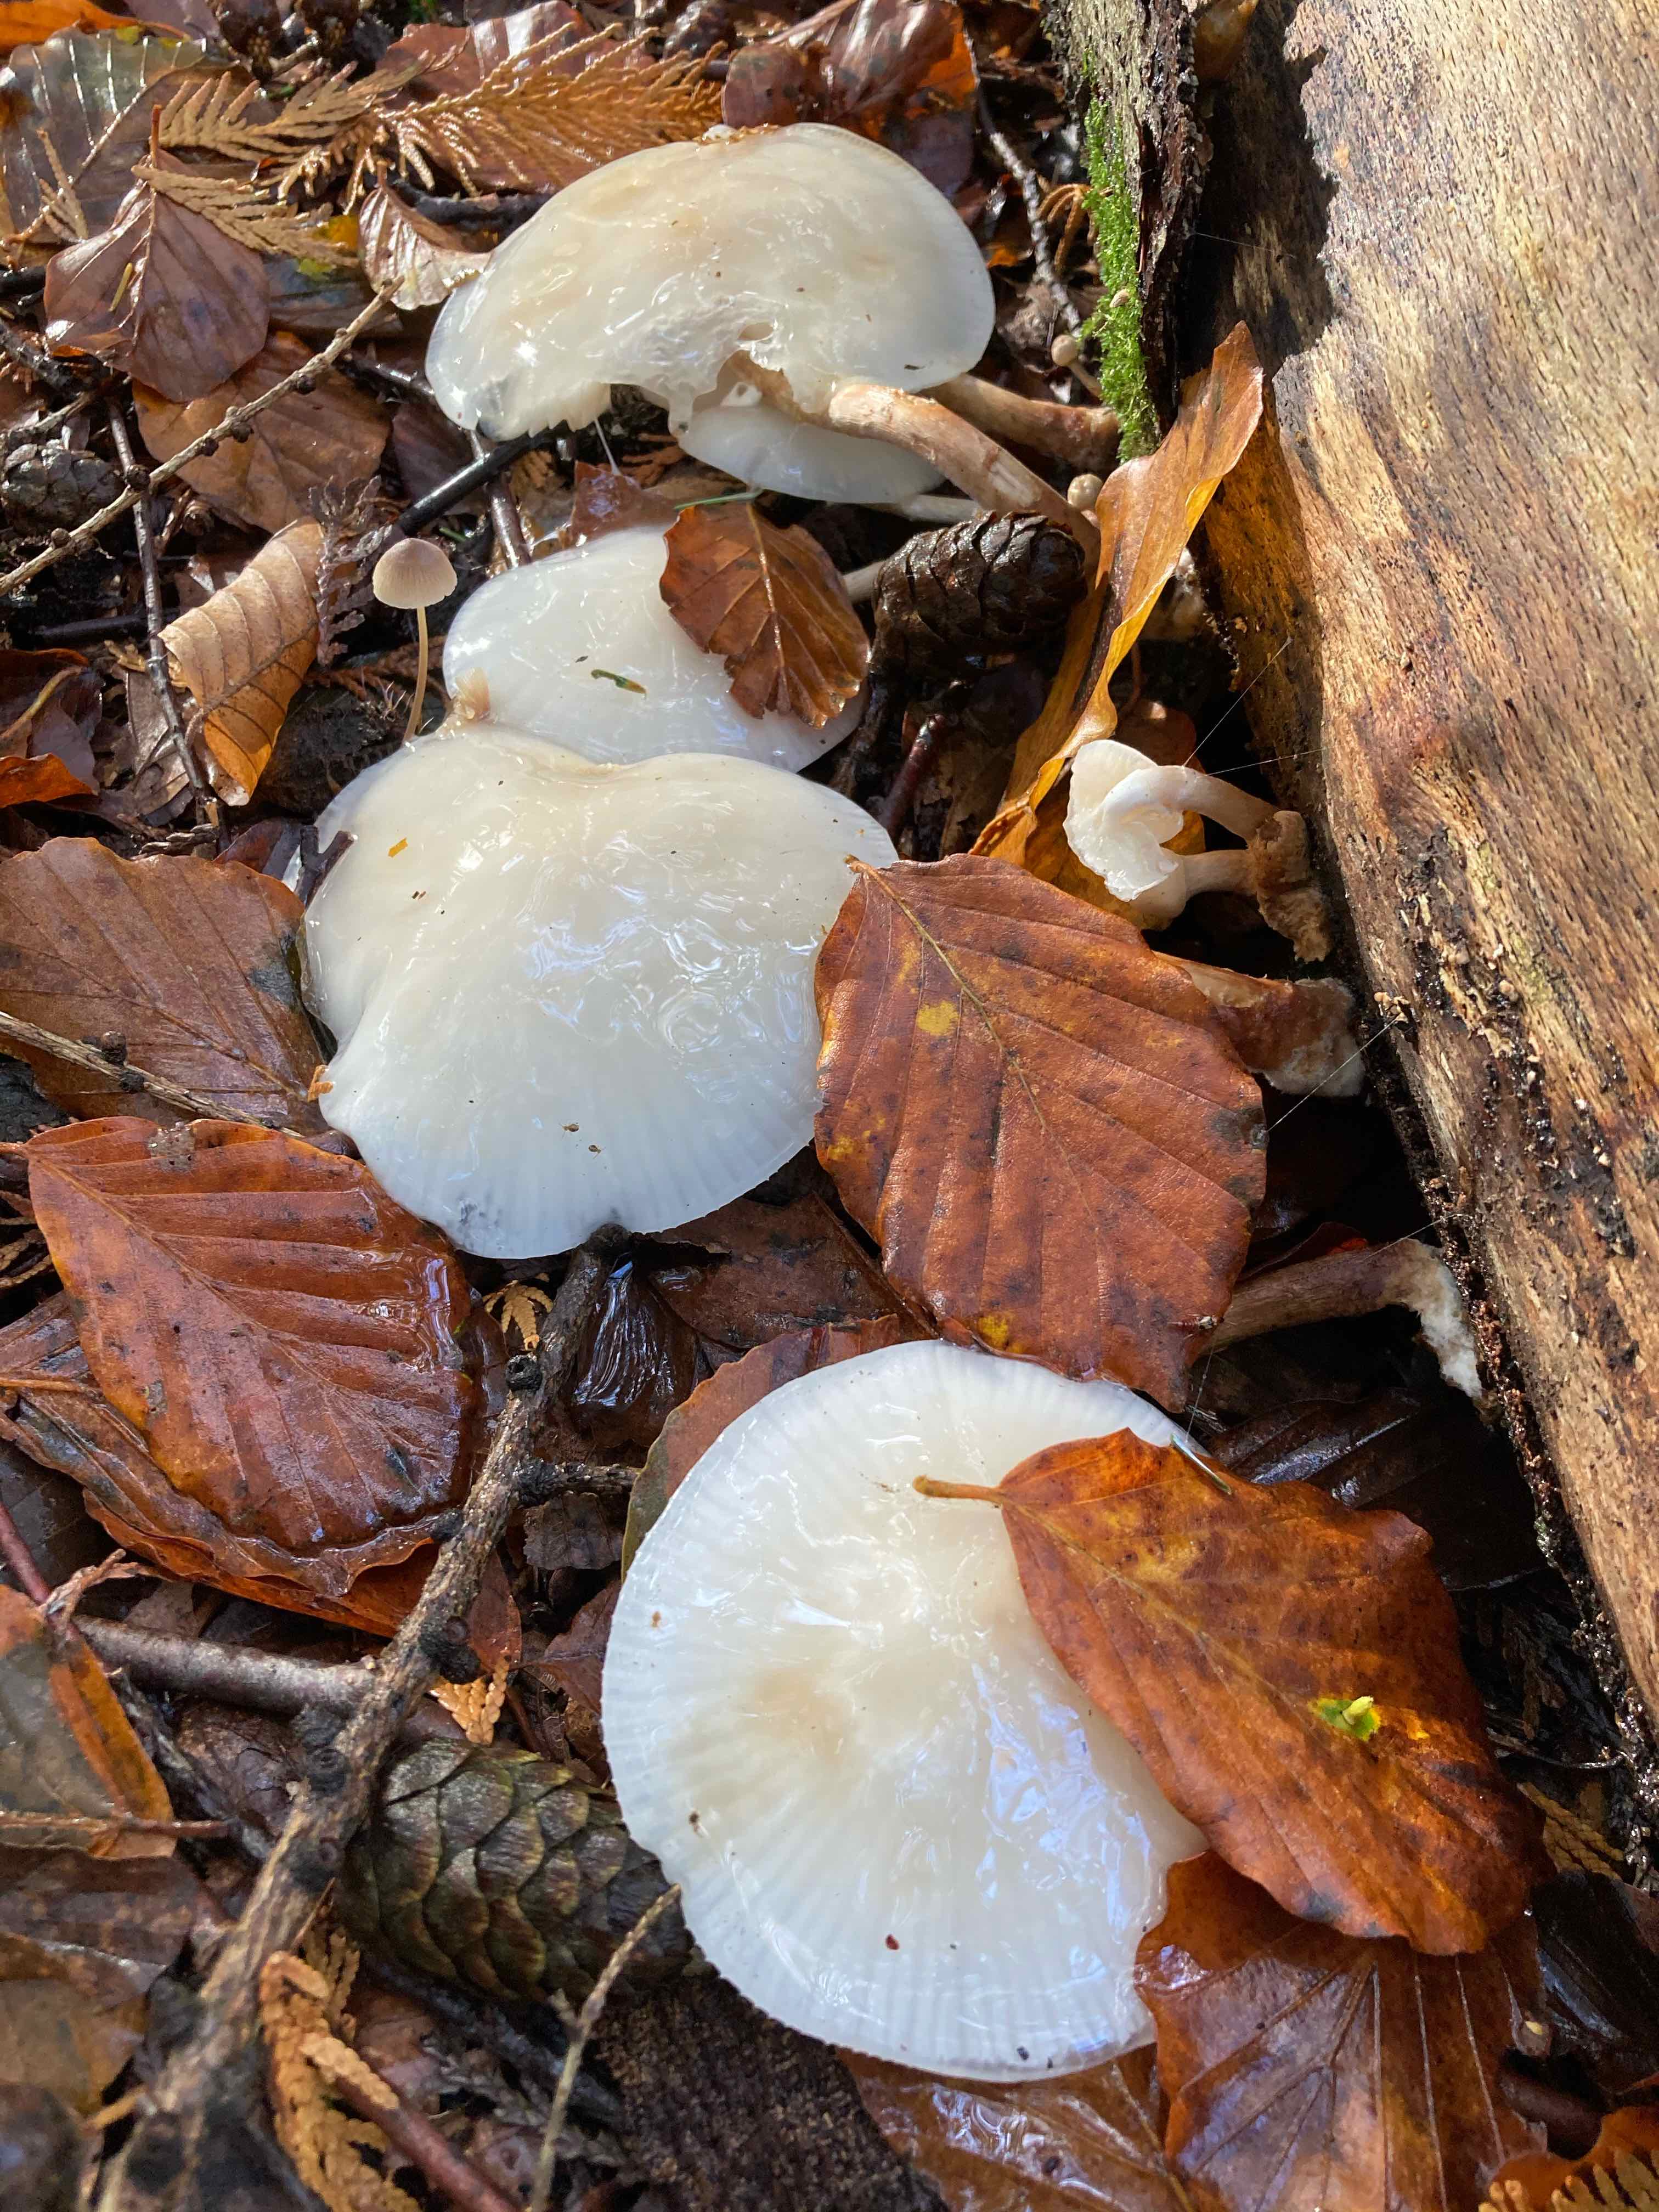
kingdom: Fungi
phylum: Basidiomycota
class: Agaricomycetes
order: Agaricales
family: Physalacriaceae
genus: Mucidula
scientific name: Mucidula mucida
